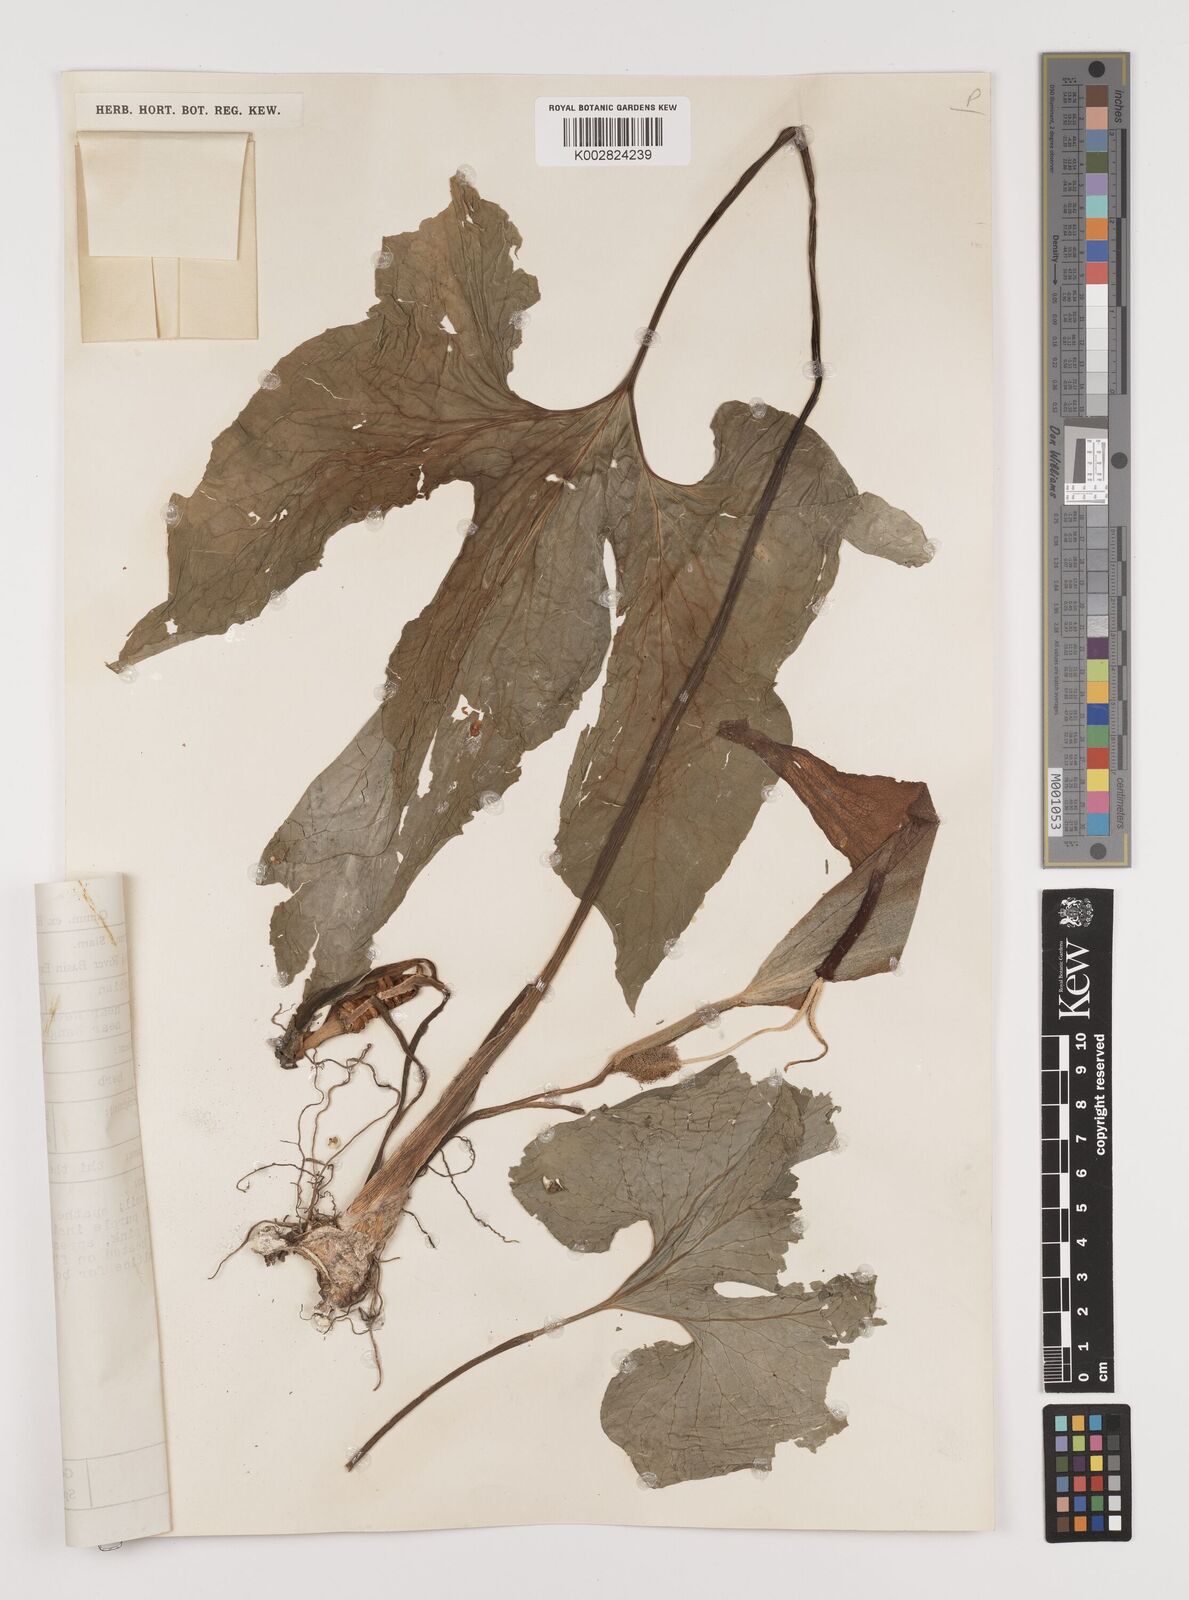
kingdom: Plantae
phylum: Tracheophyta
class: Liliopsida
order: Alismatales
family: Araceae
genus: Typhonium
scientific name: Typhonium trilobatum
